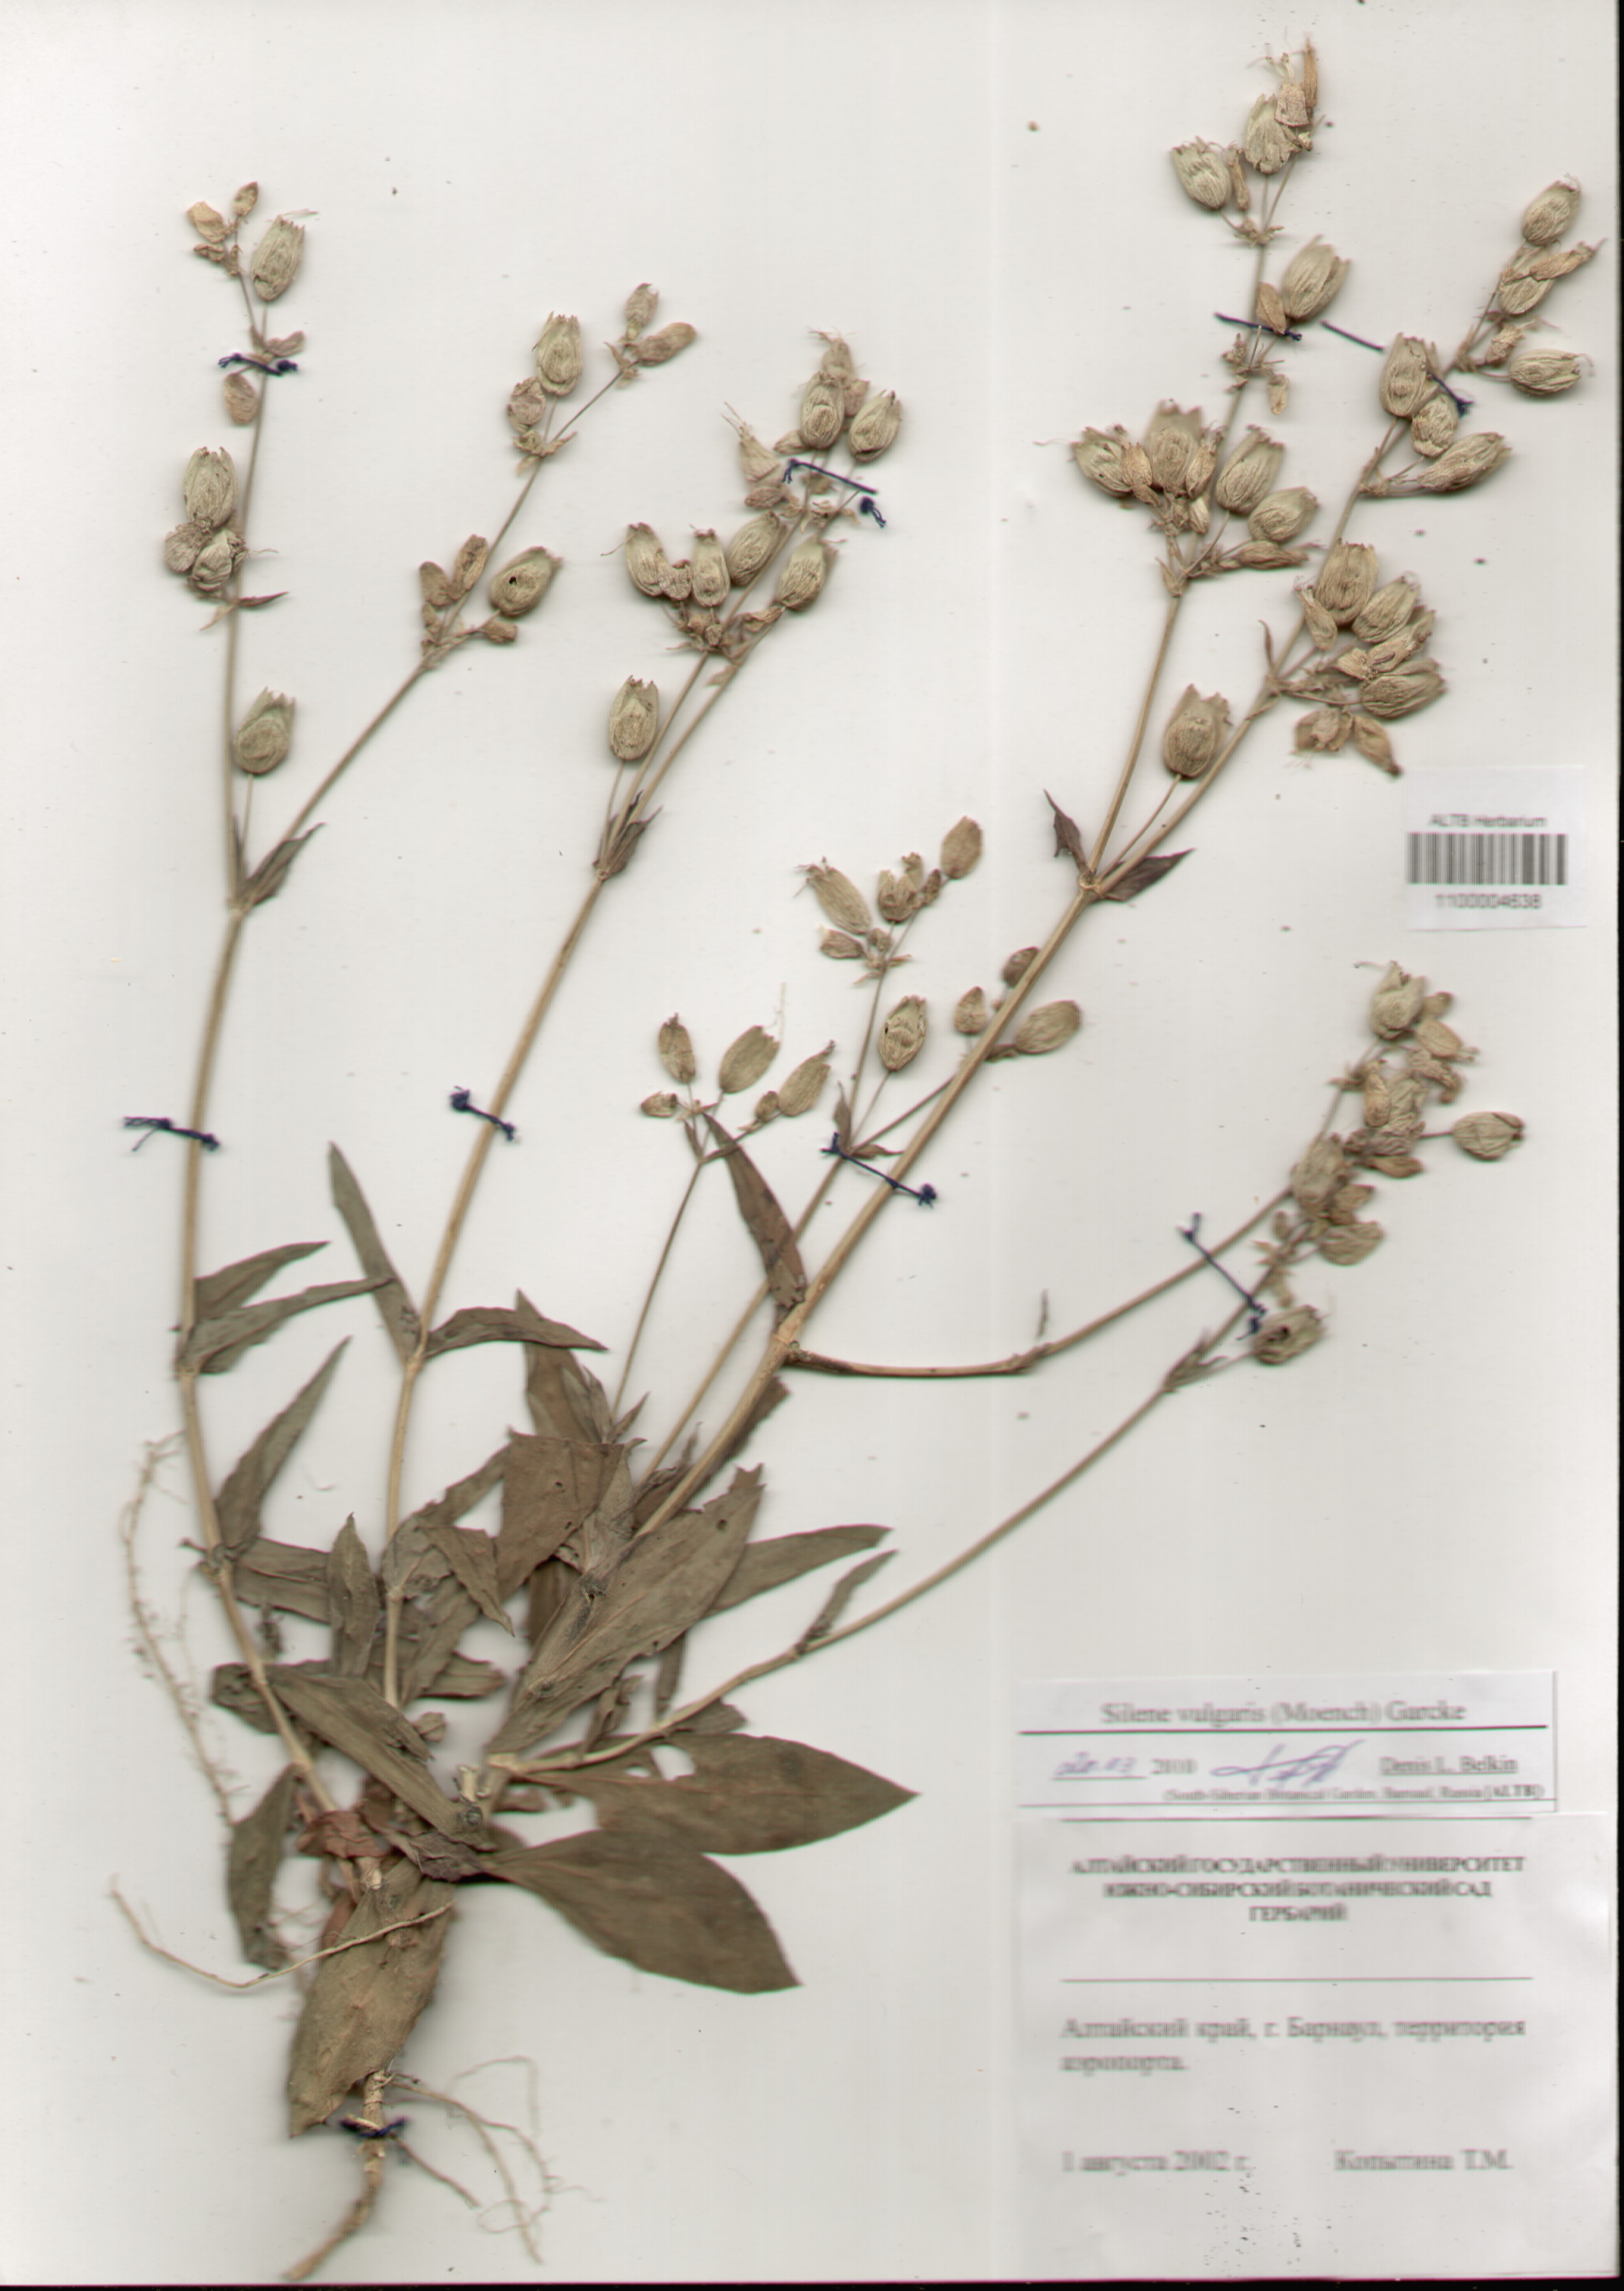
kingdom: Plantae
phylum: Tracheophyta
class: Magnoliopsida
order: Caryophyllales
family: Caryophyllaceae
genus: Silene
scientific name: Silene vulgaris
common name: Bladder campion
